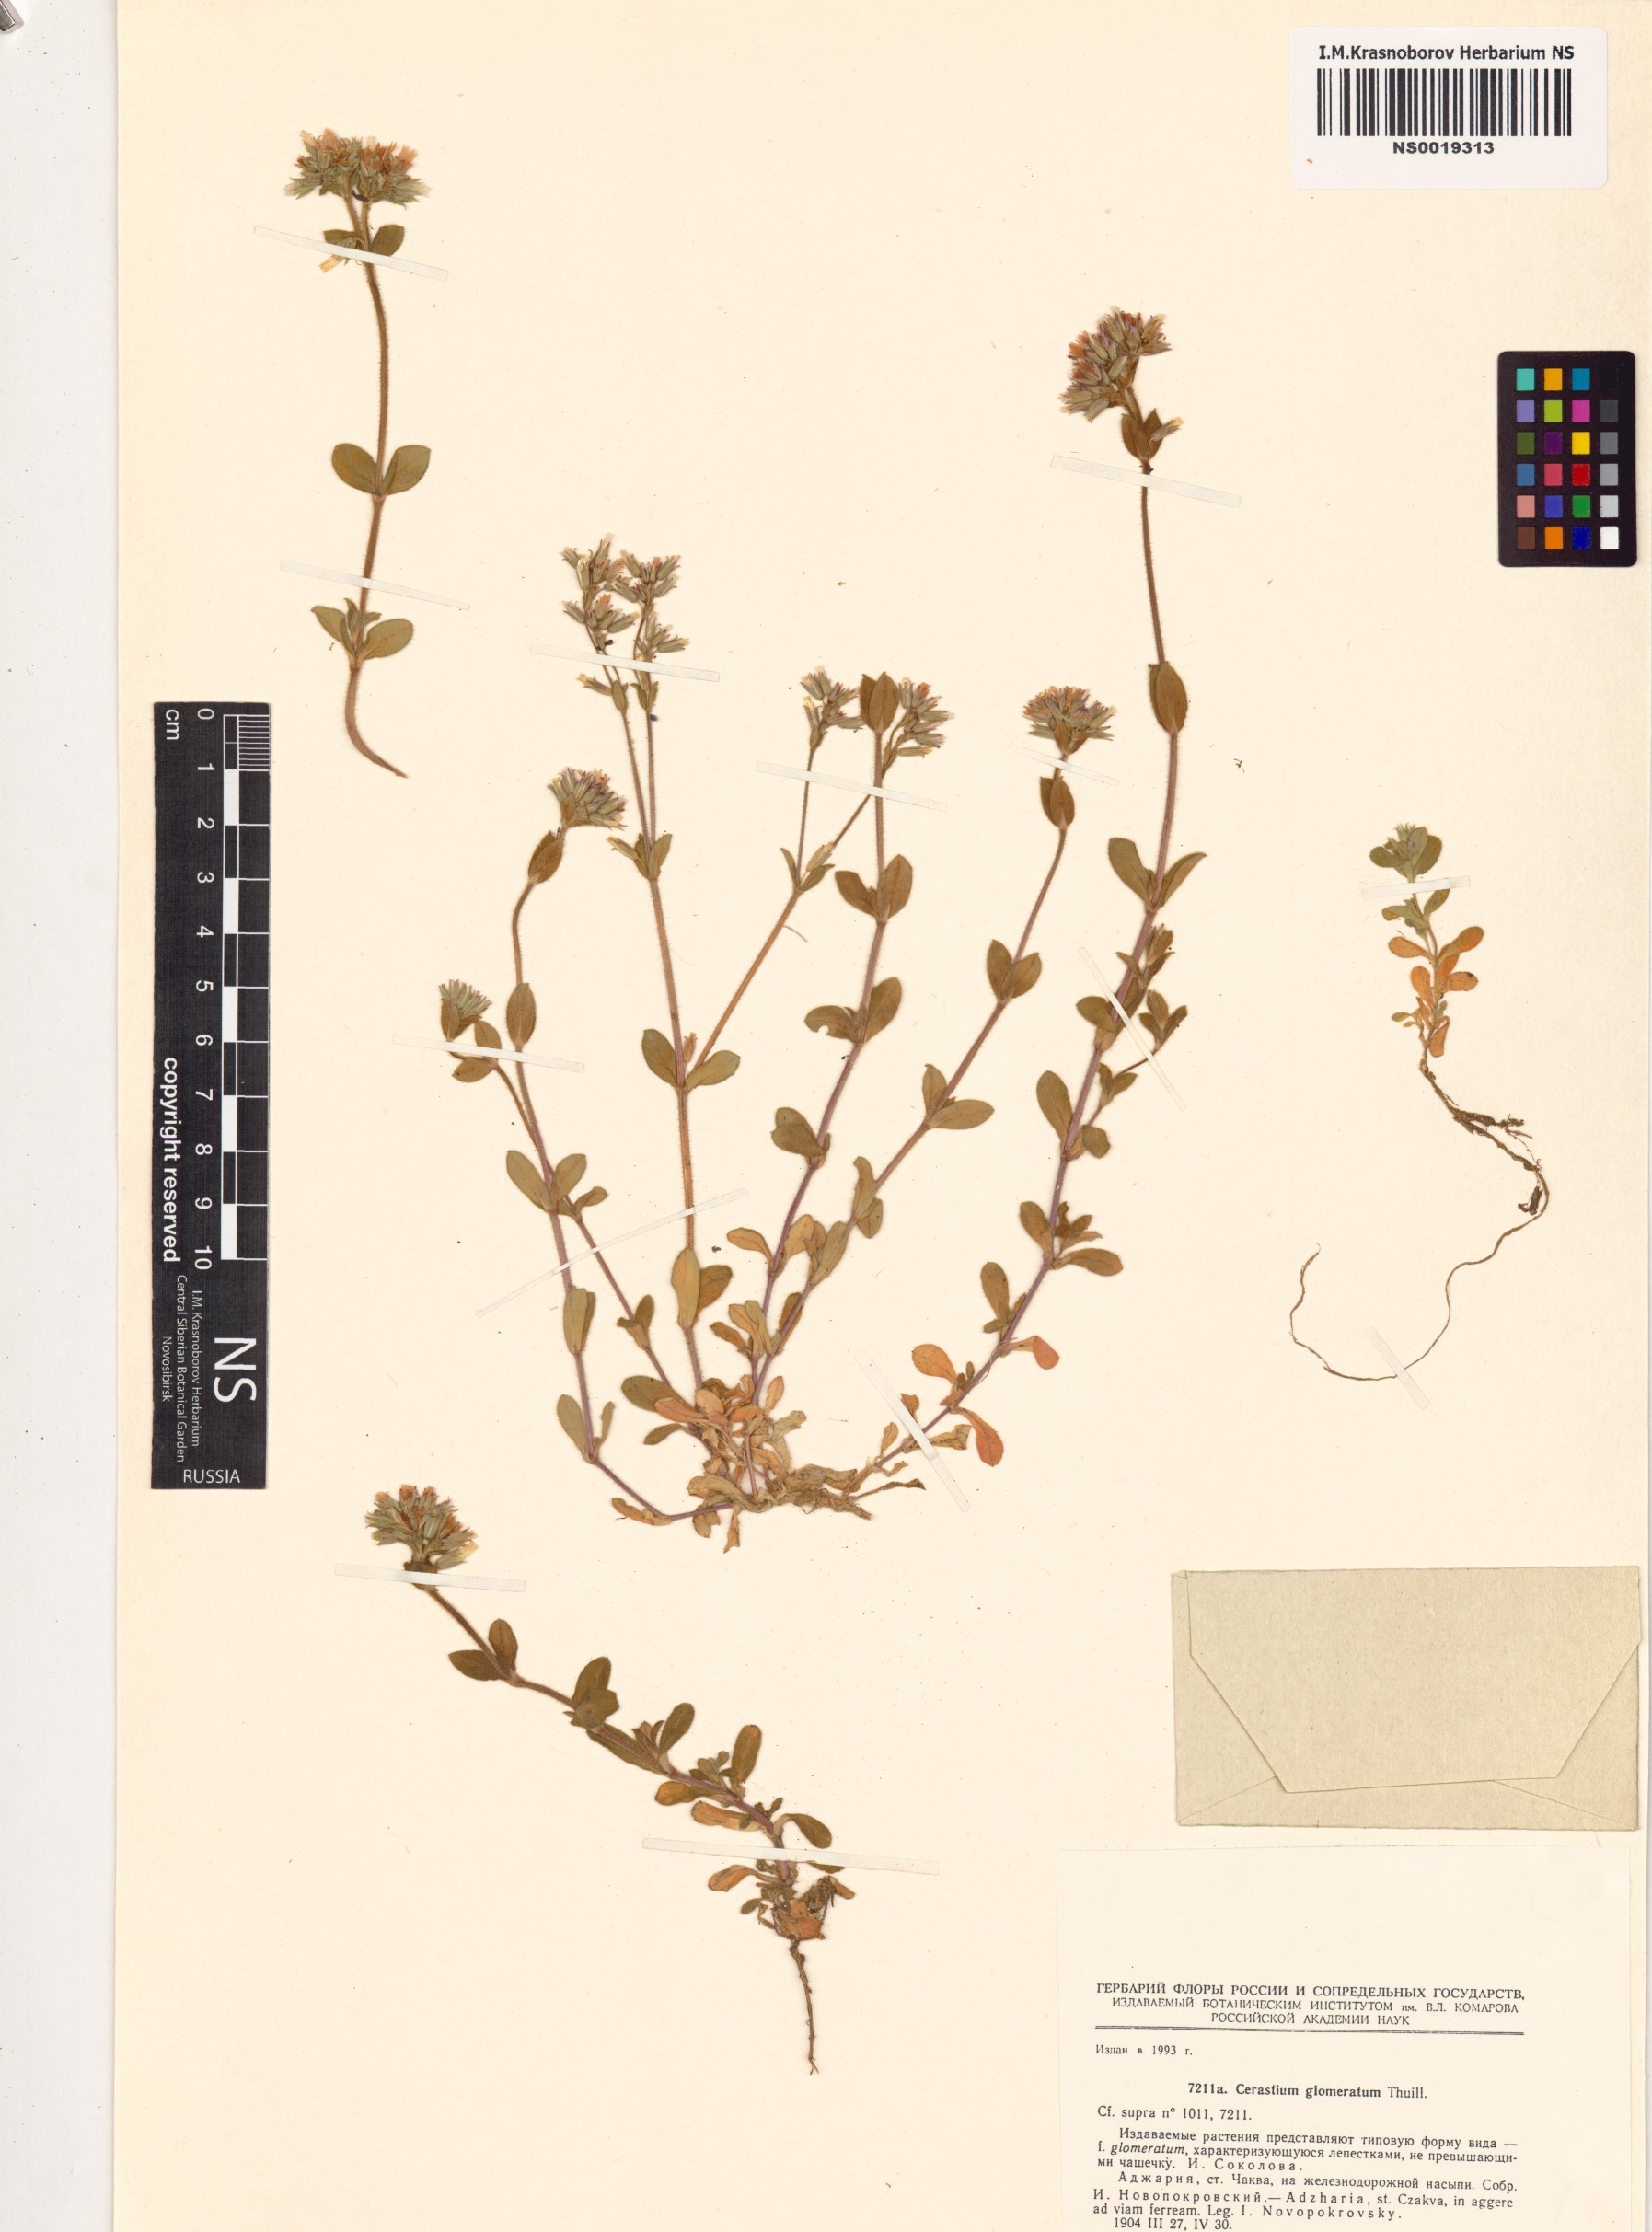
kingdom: Plantae
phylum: Tracheophyta
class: Magnoliopsida
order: Caryophyllales
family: Caryophyllaceae
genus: Cerastium
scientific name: Cerastium glomeratum
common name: Sticky chickweed
